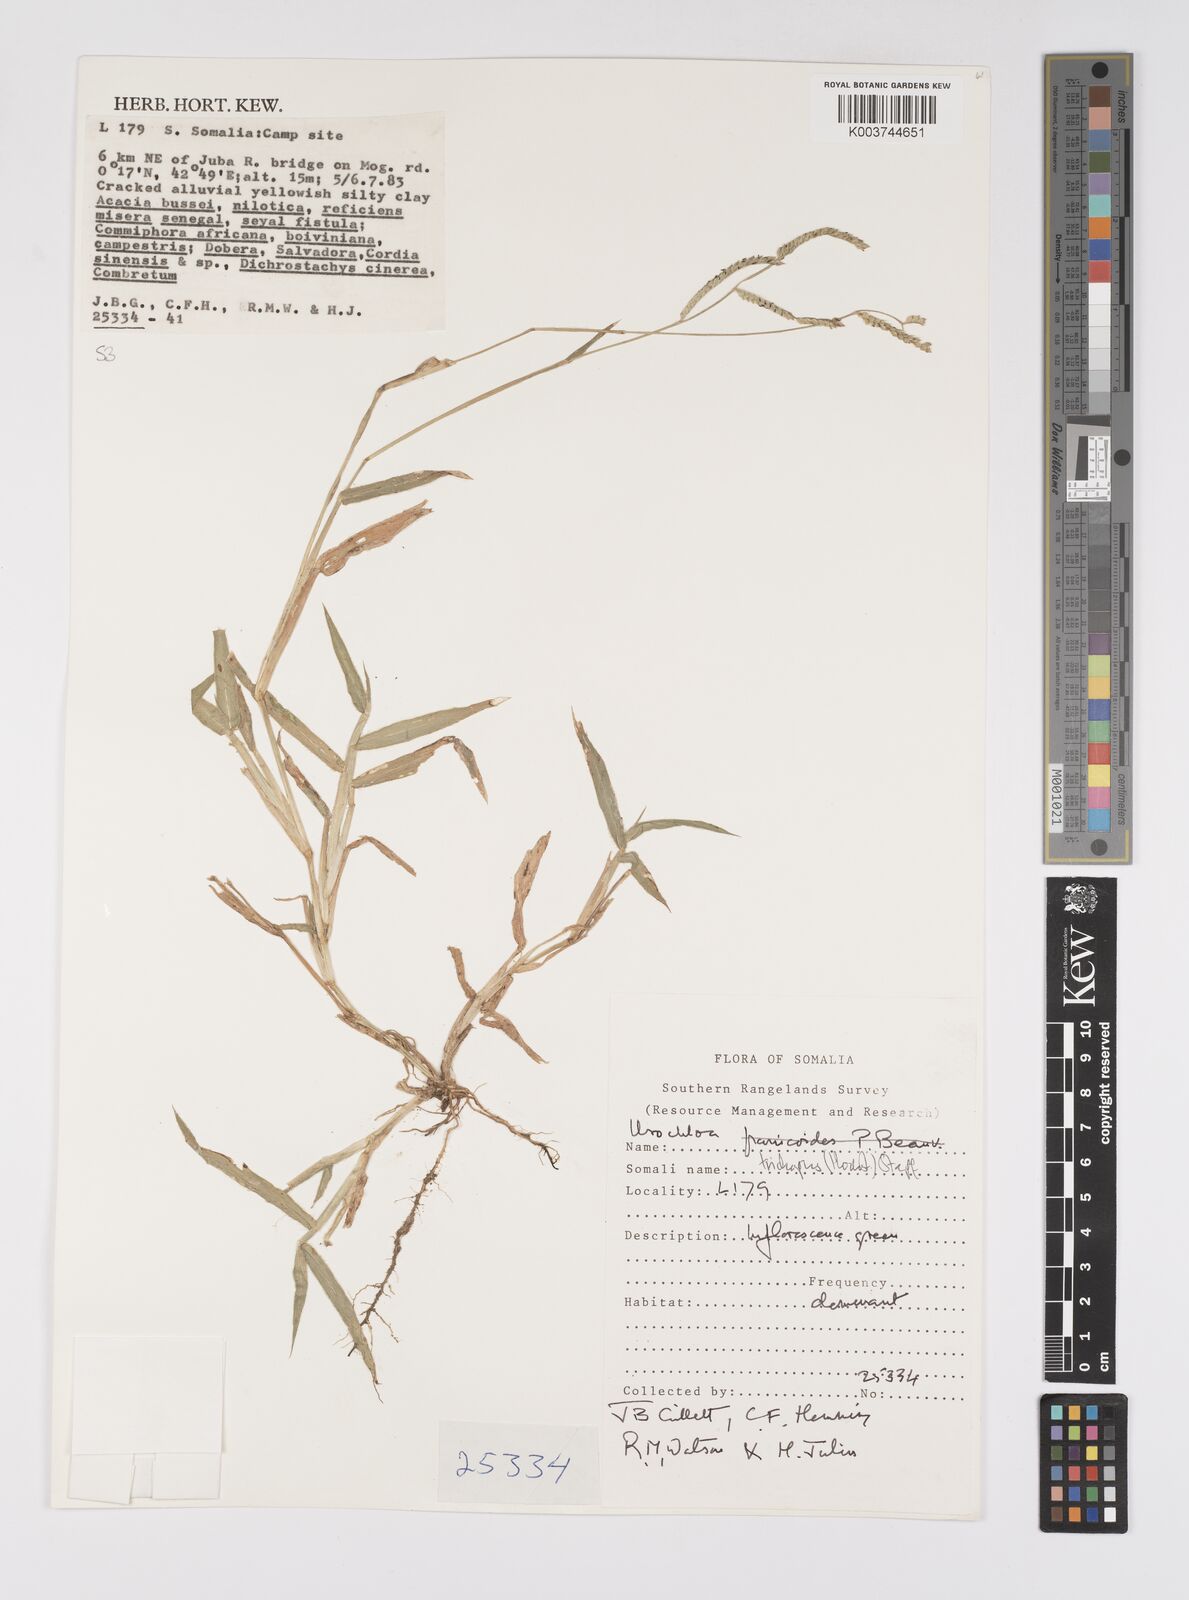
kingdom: Plantae
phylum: Tracheophyta
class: Liliopsida
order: Poales
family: Poaceae
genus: Urochloa
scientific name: Urochloa trichopus
